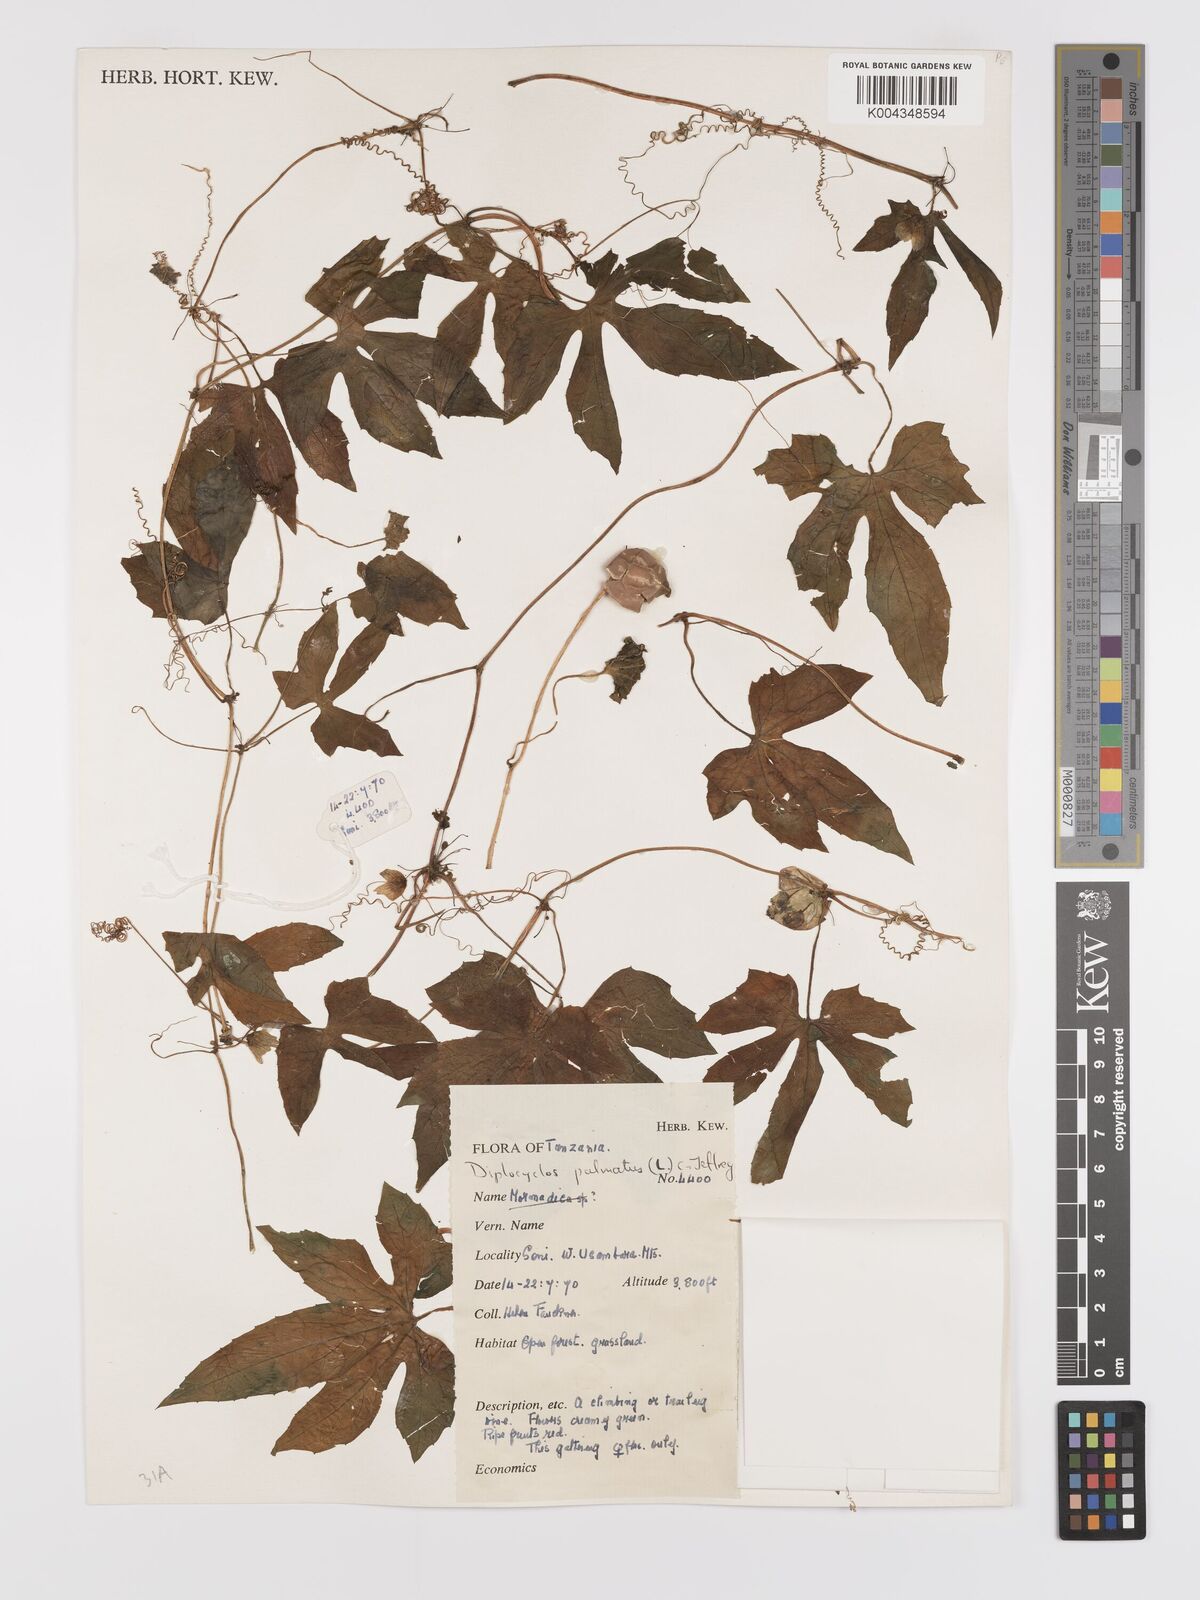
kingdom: Plantae
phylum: Tracheophyta
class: Magnoliopsida
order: Cucurbitales
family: Cucurbitaceae
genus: Diplocyclos
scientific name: Diplocyclos palmatus
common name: Striped-cucumber
